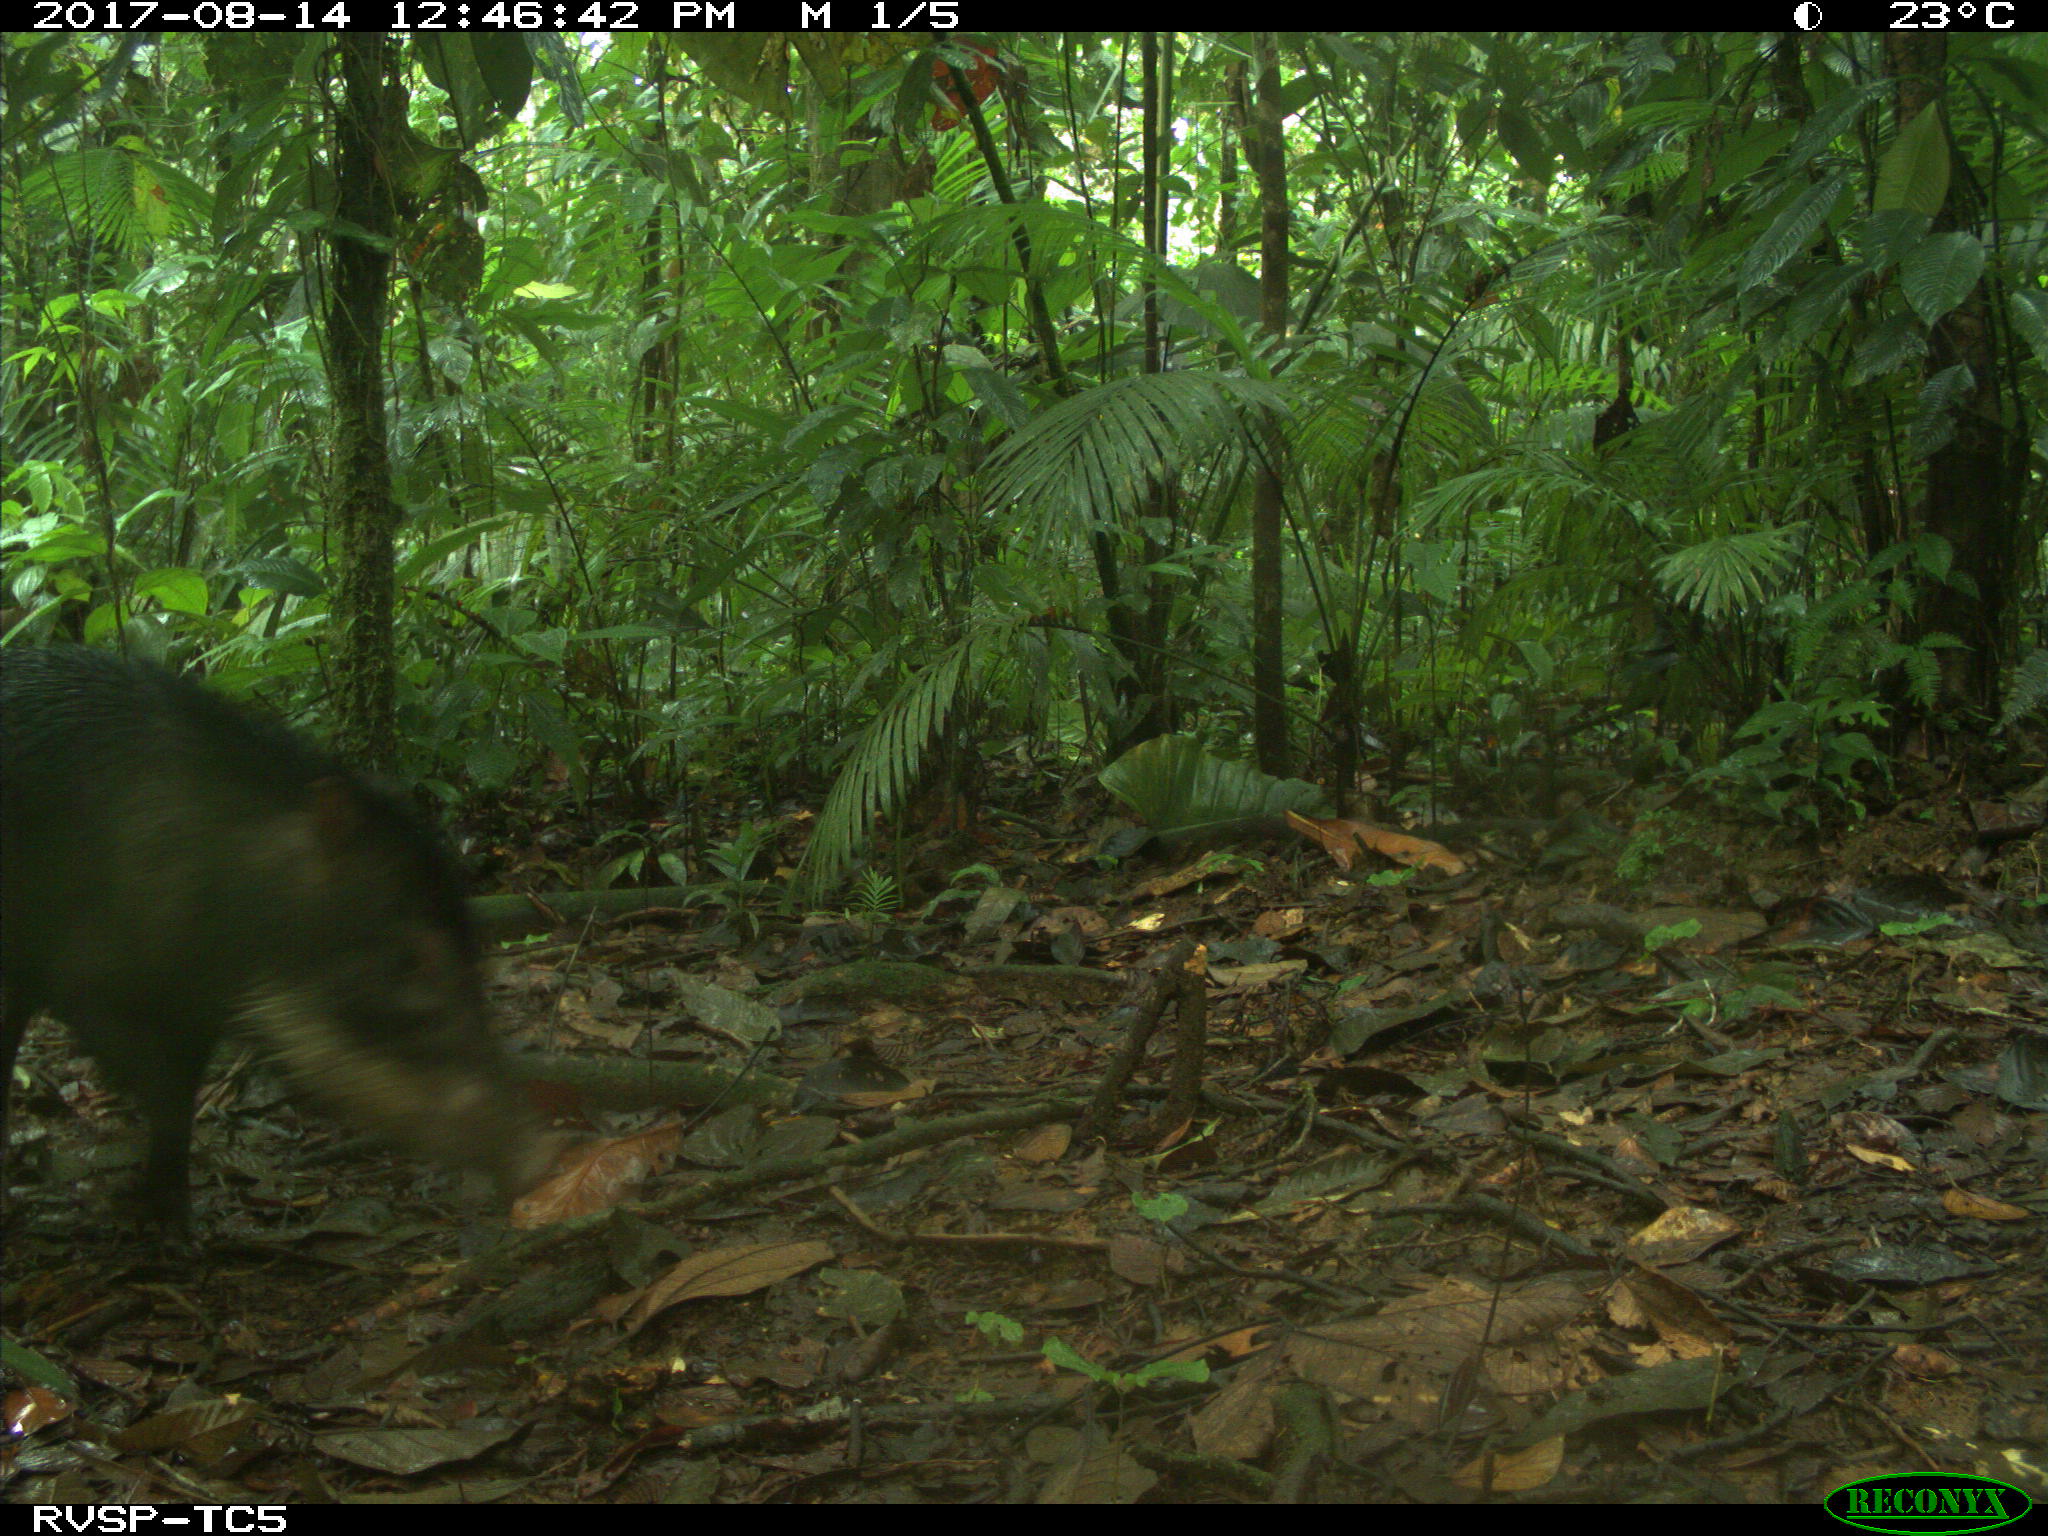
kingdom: Animalia
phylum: Chordata
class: Mammalia
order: Artiodactyla
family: Tayassuidae
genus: Tayassu
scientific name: Tayassu pecari
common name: White-lipped peccary
